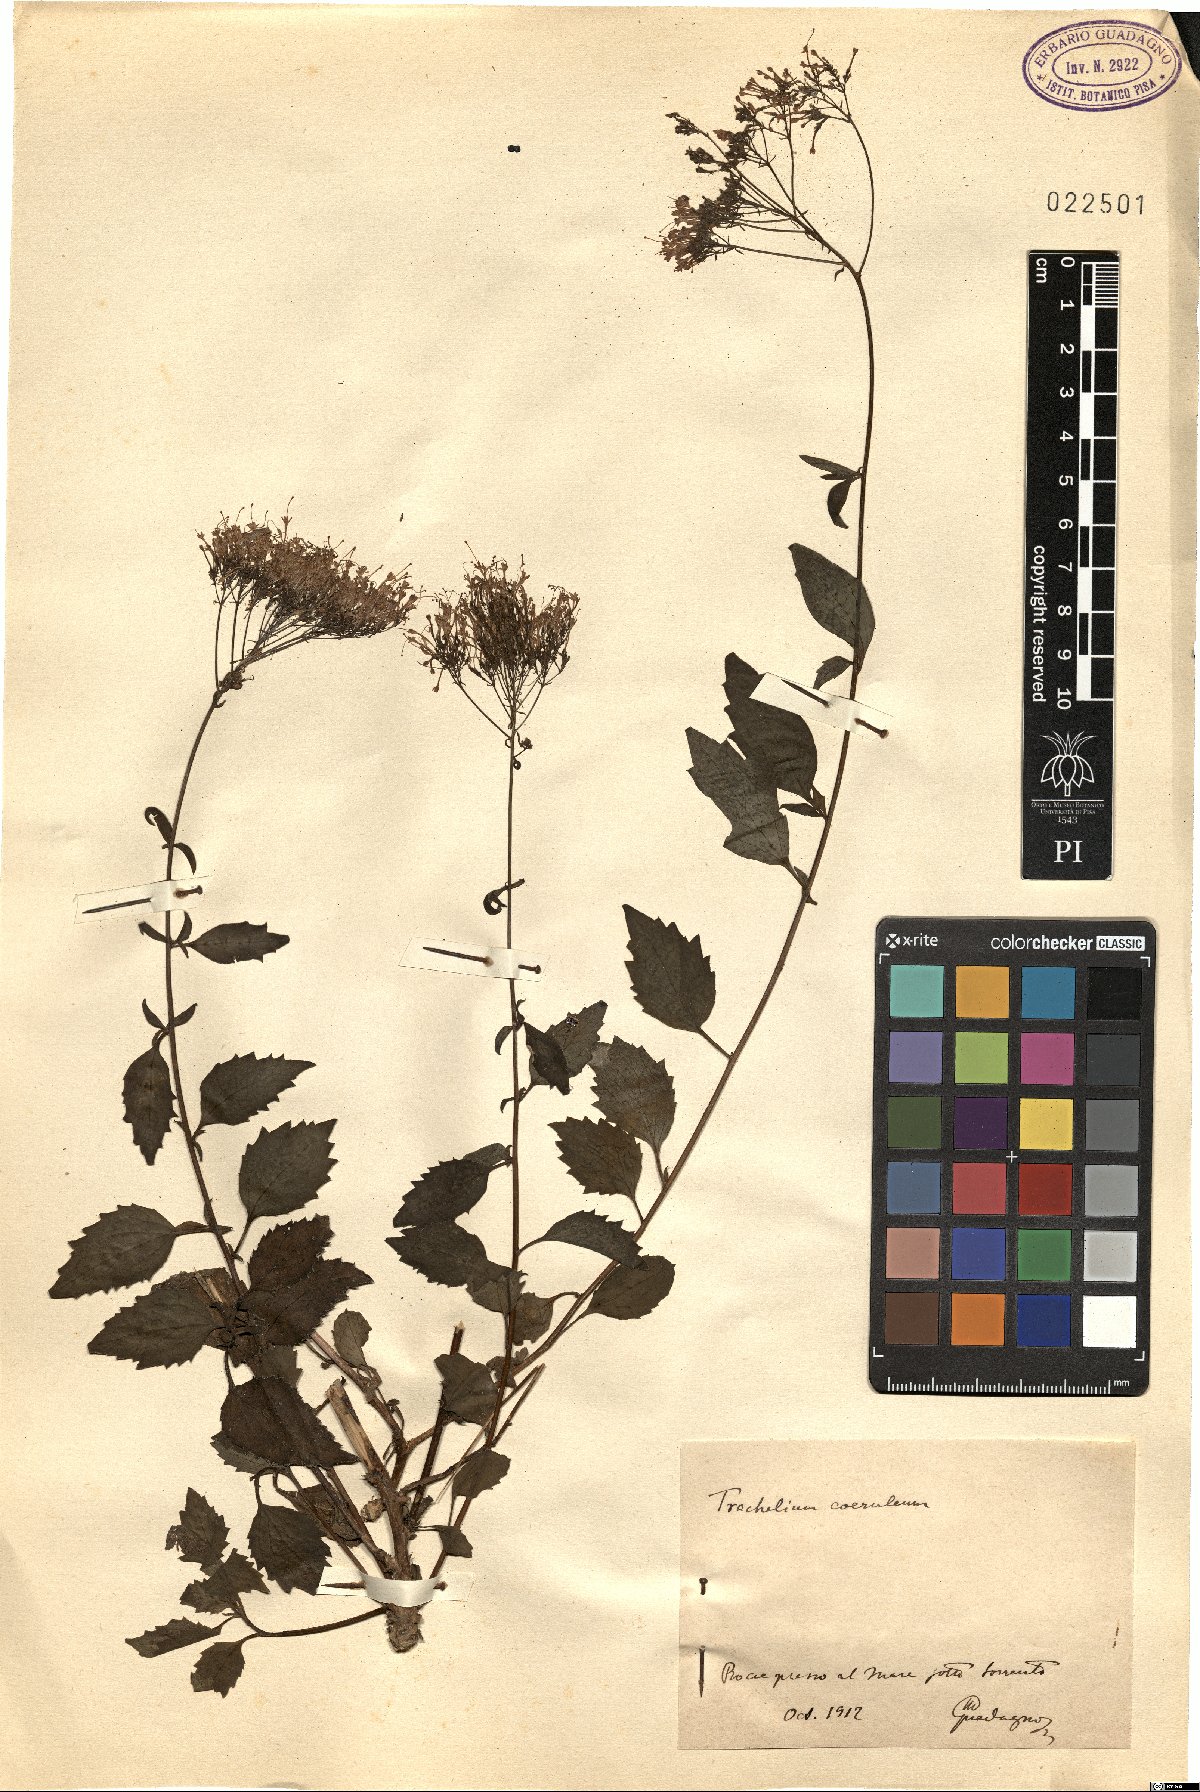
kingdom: Plantae
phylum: Tracheophyta
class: Magnoliopsida
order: Asterales
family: Campanulaceae
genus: Trachelium
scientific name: Trachelium caeruleum
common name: Throatwort
